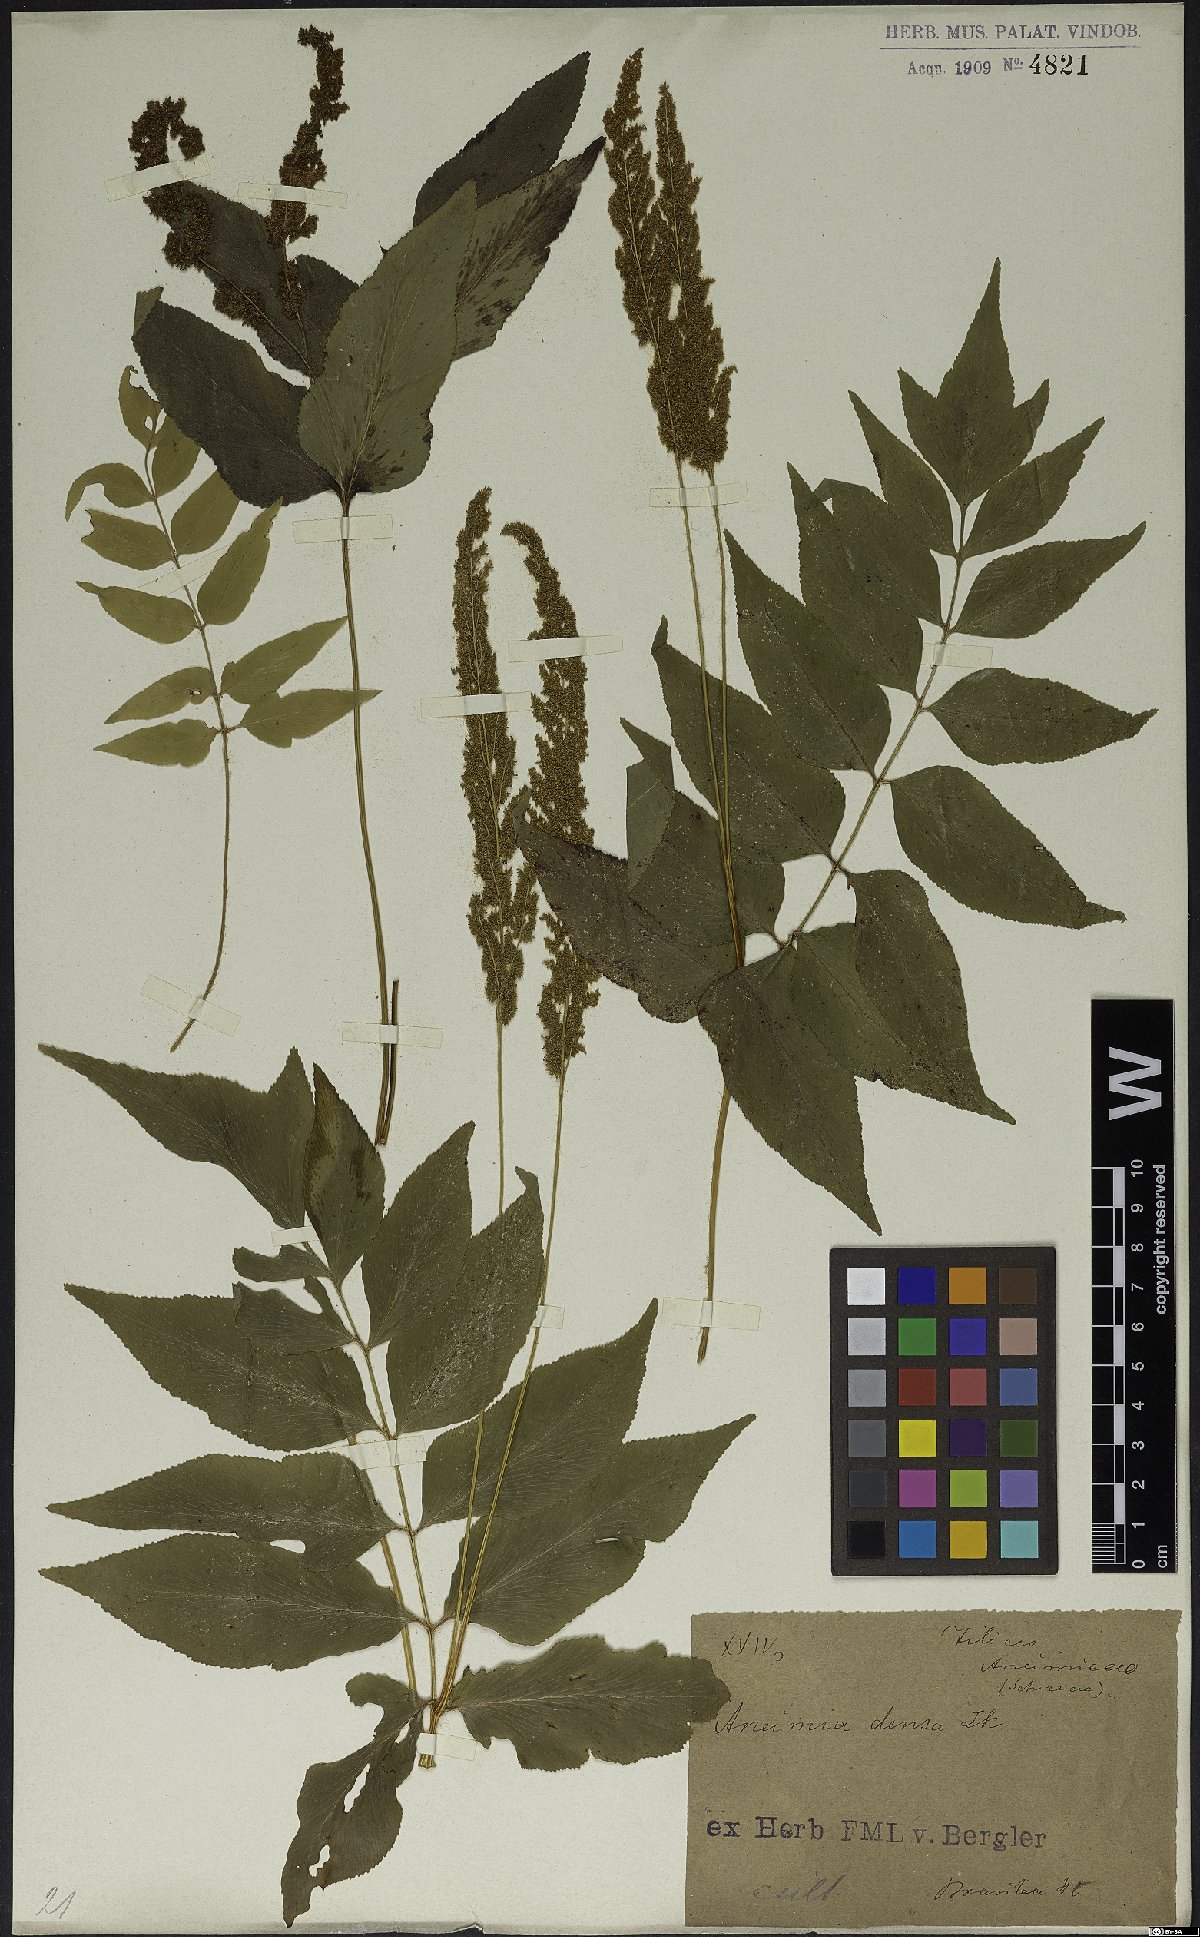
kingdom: Plantae
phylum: Tracheophyta
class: Polypodiopsida
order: Schizaeales
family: Anemiaceae
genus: Anemia
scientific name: Anemia phyllitidis
